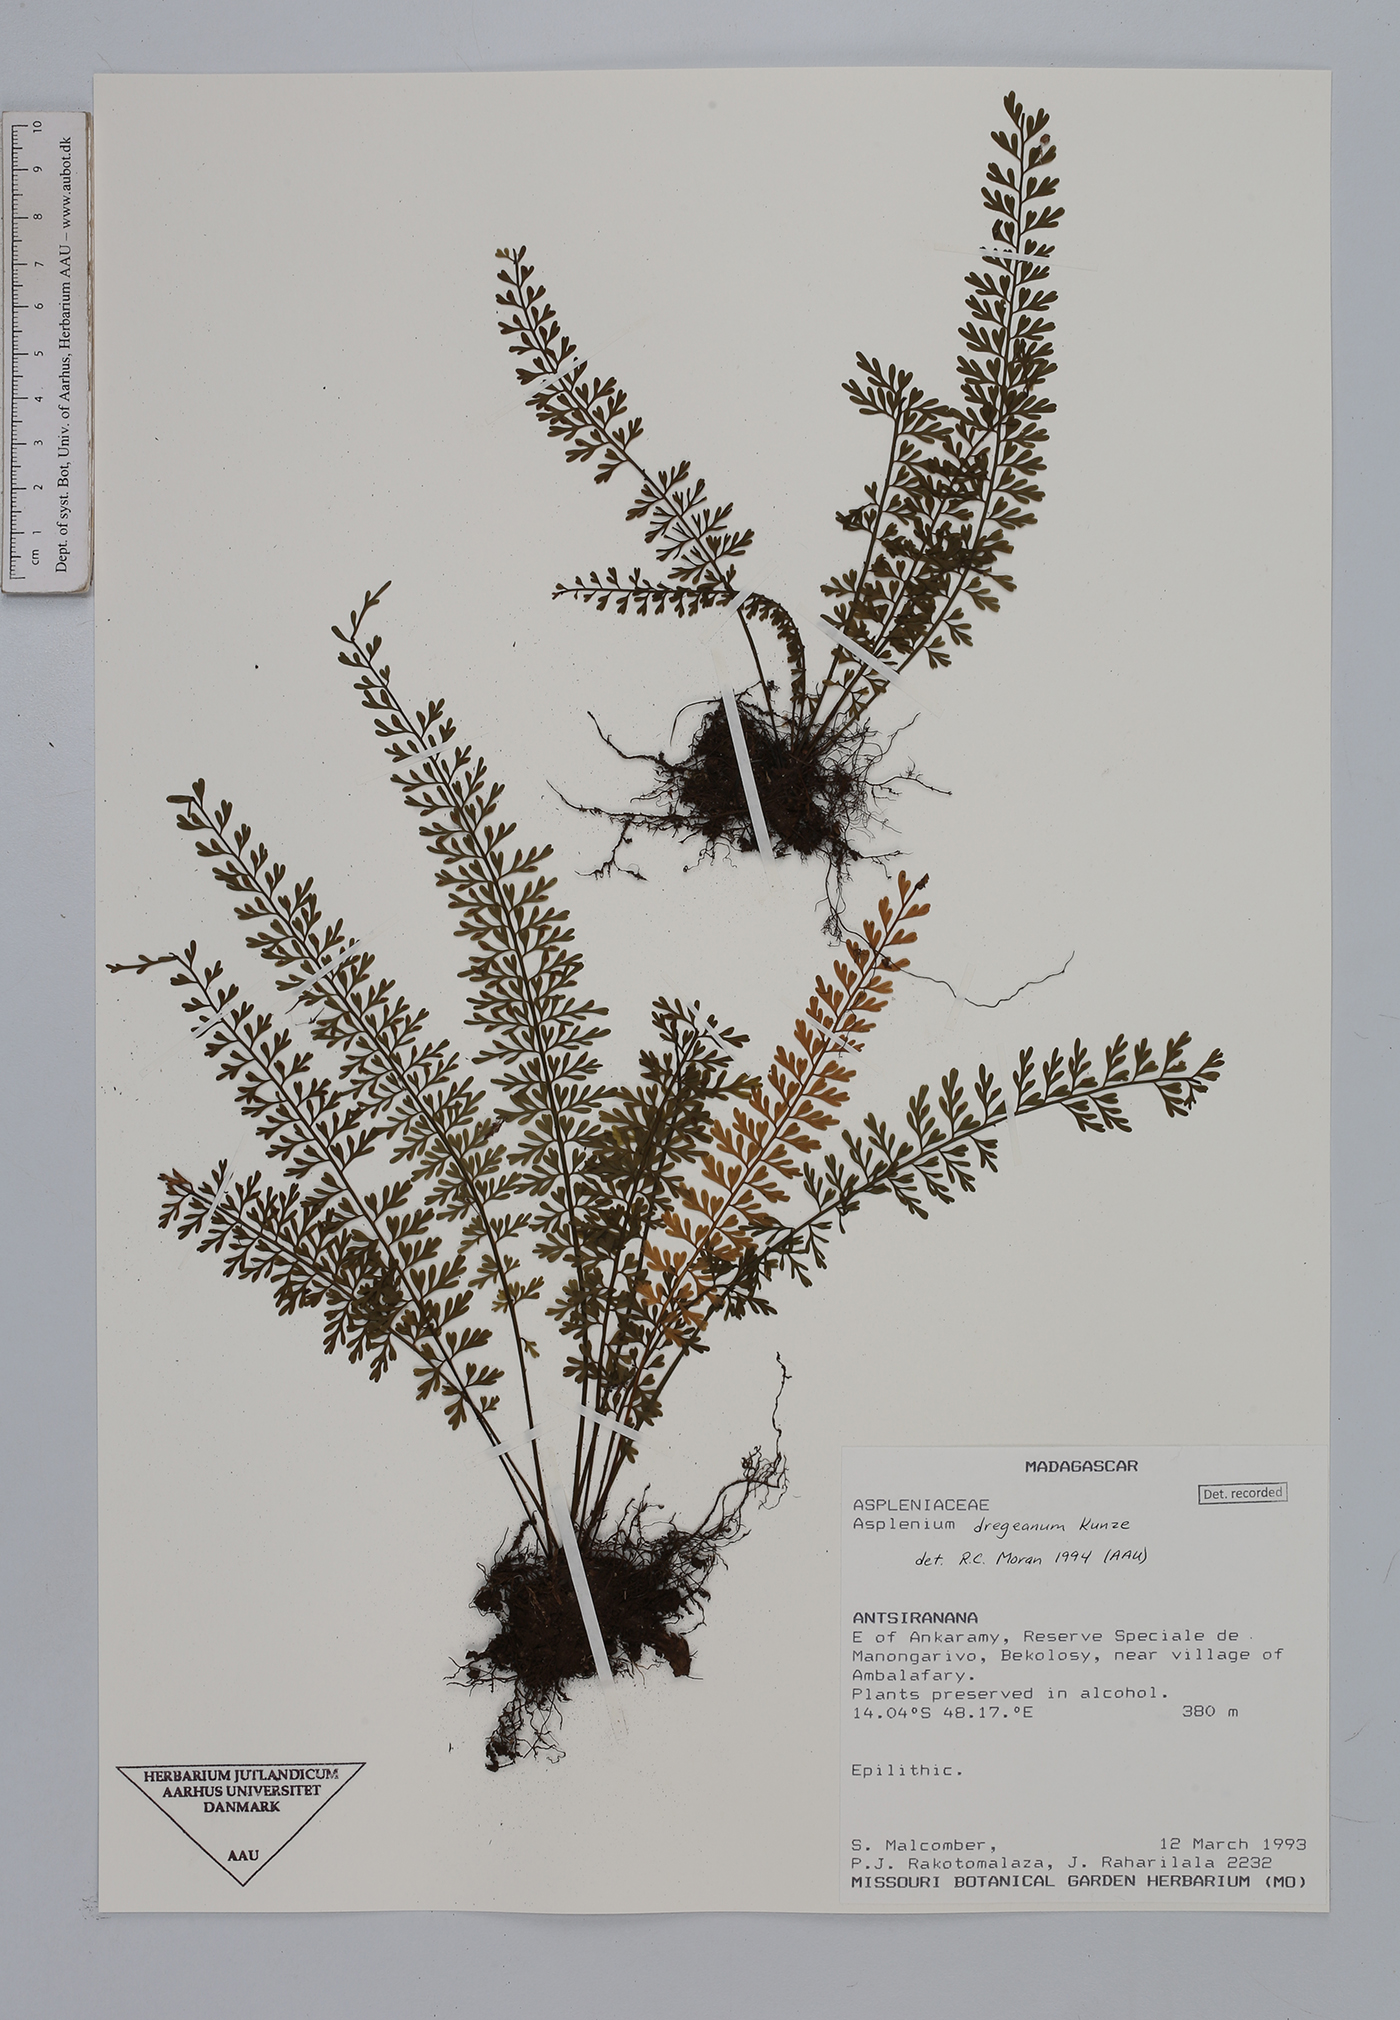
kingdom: Plantae
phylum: Tracheophyta
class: Polypodiopsida
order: Polypodiales
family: Aspleniaceae
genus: Asplenium
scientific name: Asplenium dregeanum
